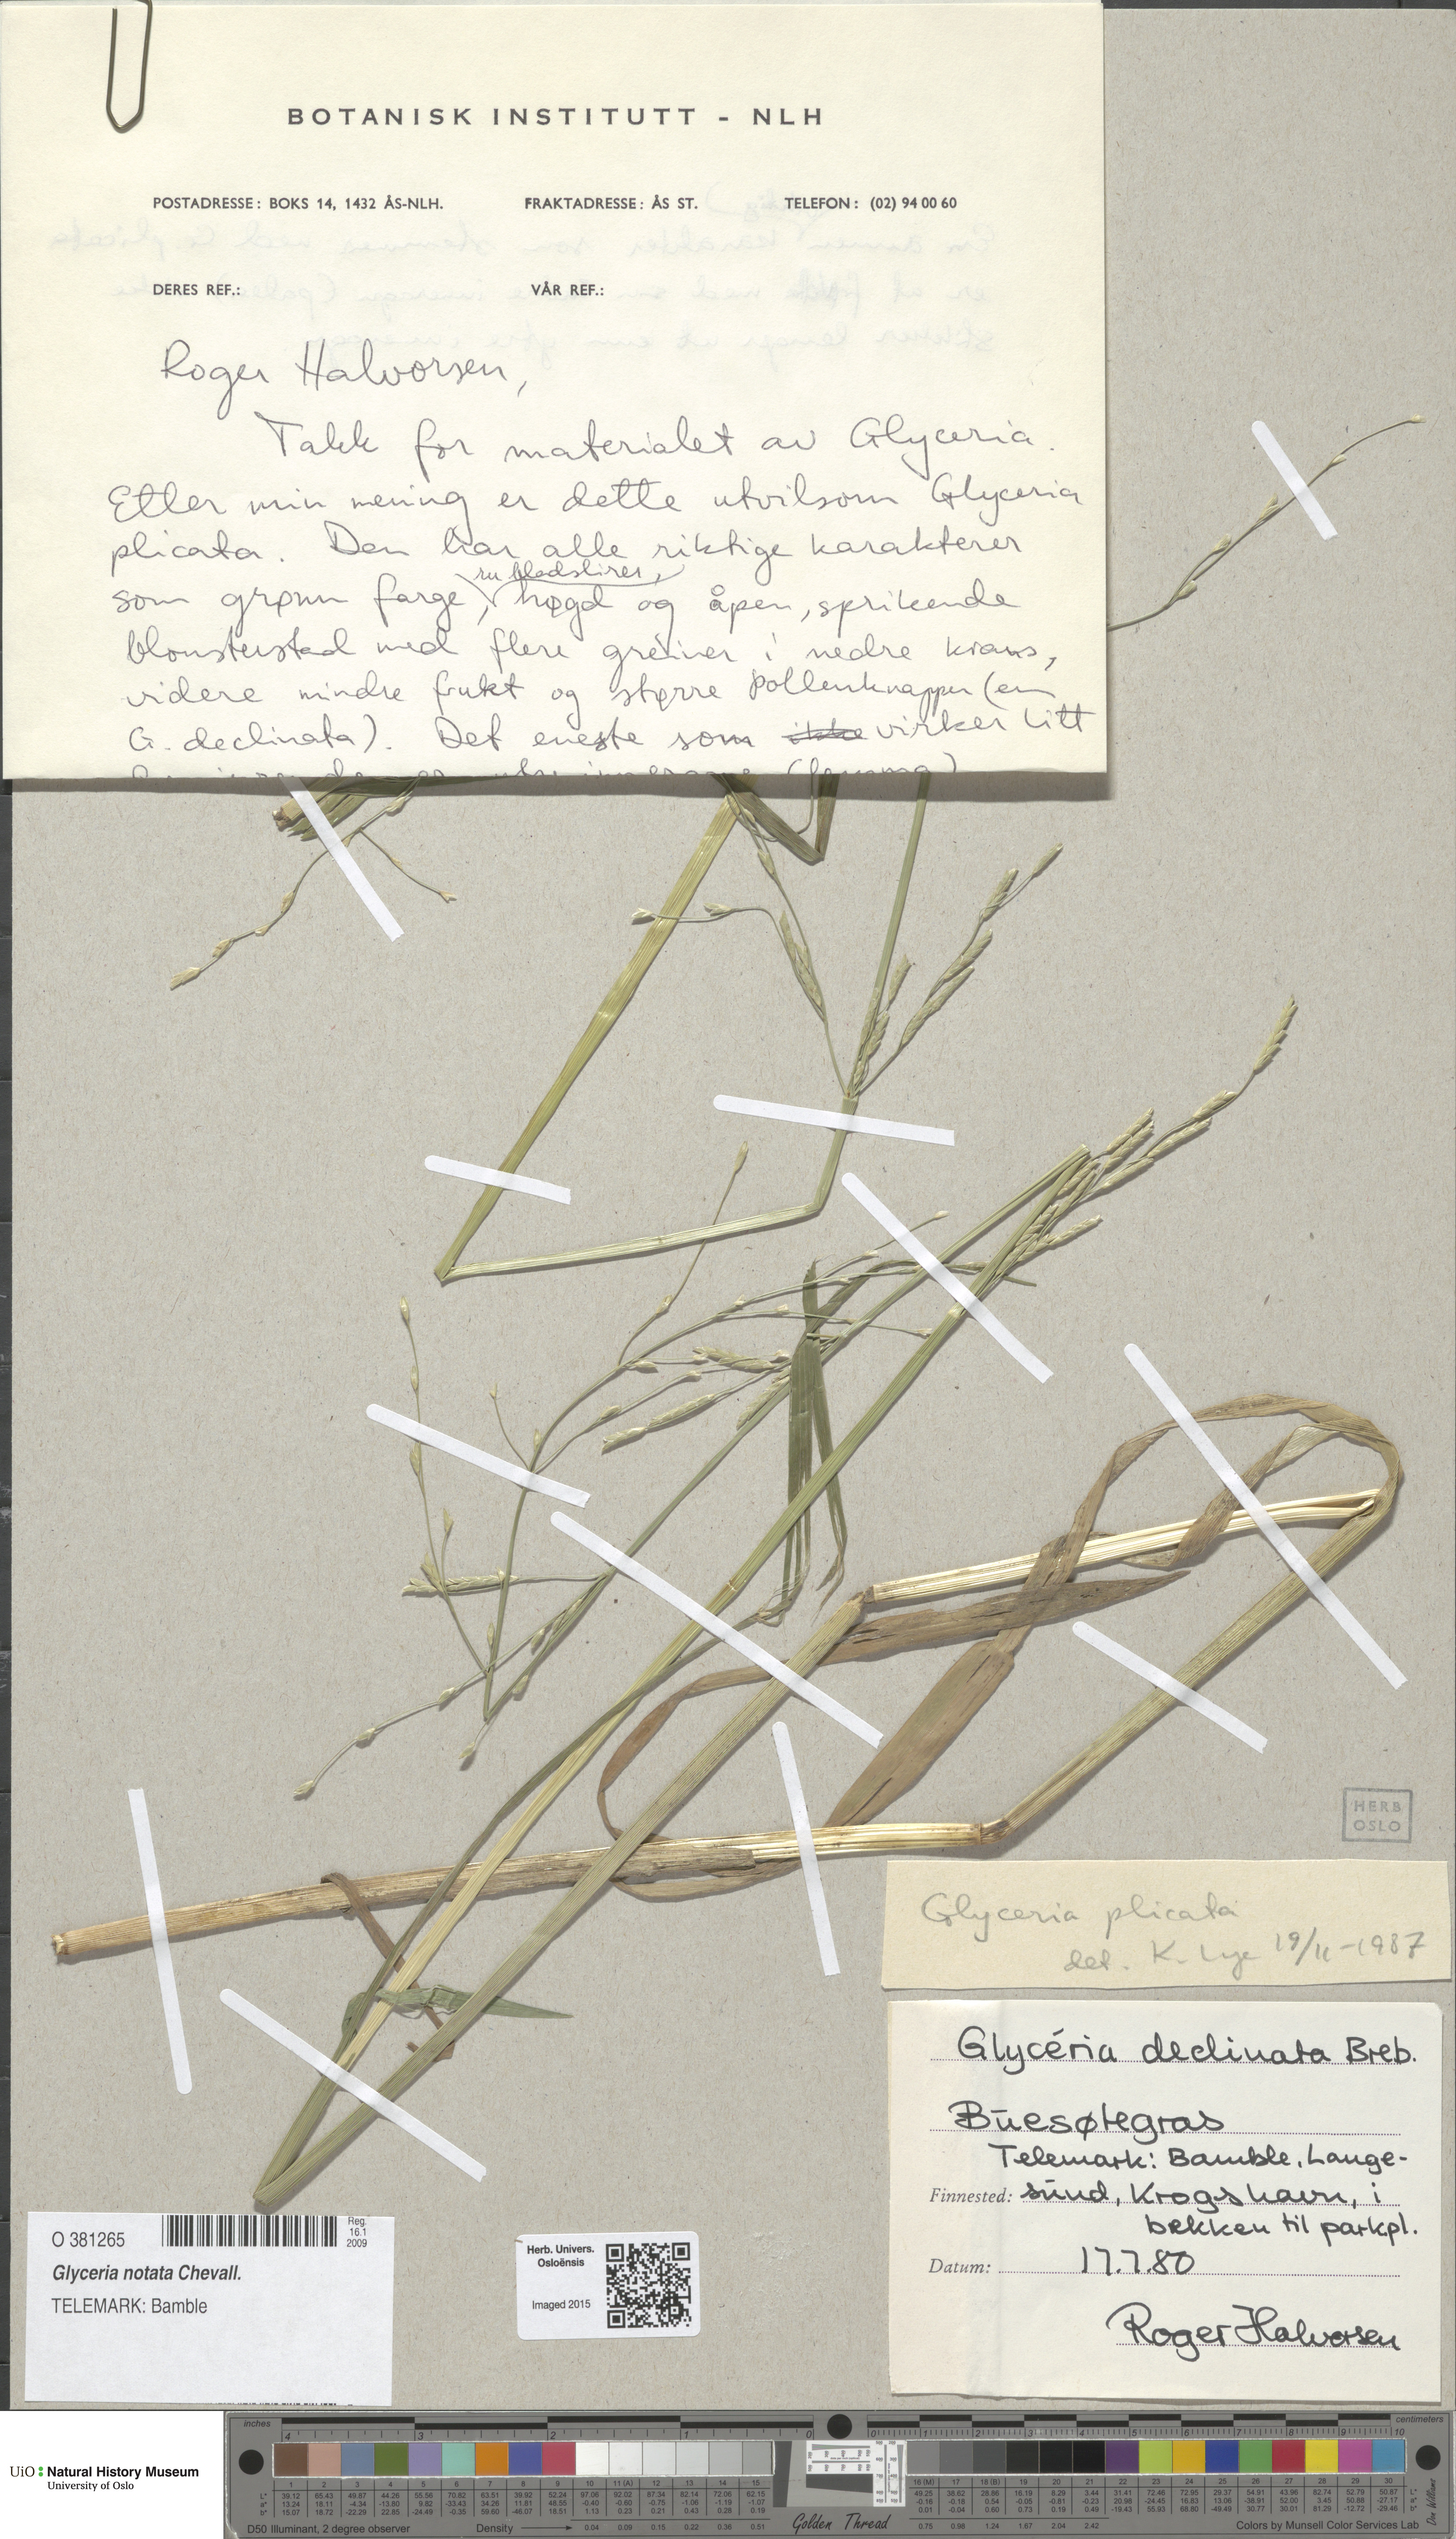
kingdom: Plantae
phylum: Tracheophyta
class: Liliopsida
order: Poales
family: Poaceae
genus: Glyceria
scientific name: Glyceria notata
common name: Plicate sweet-grass
